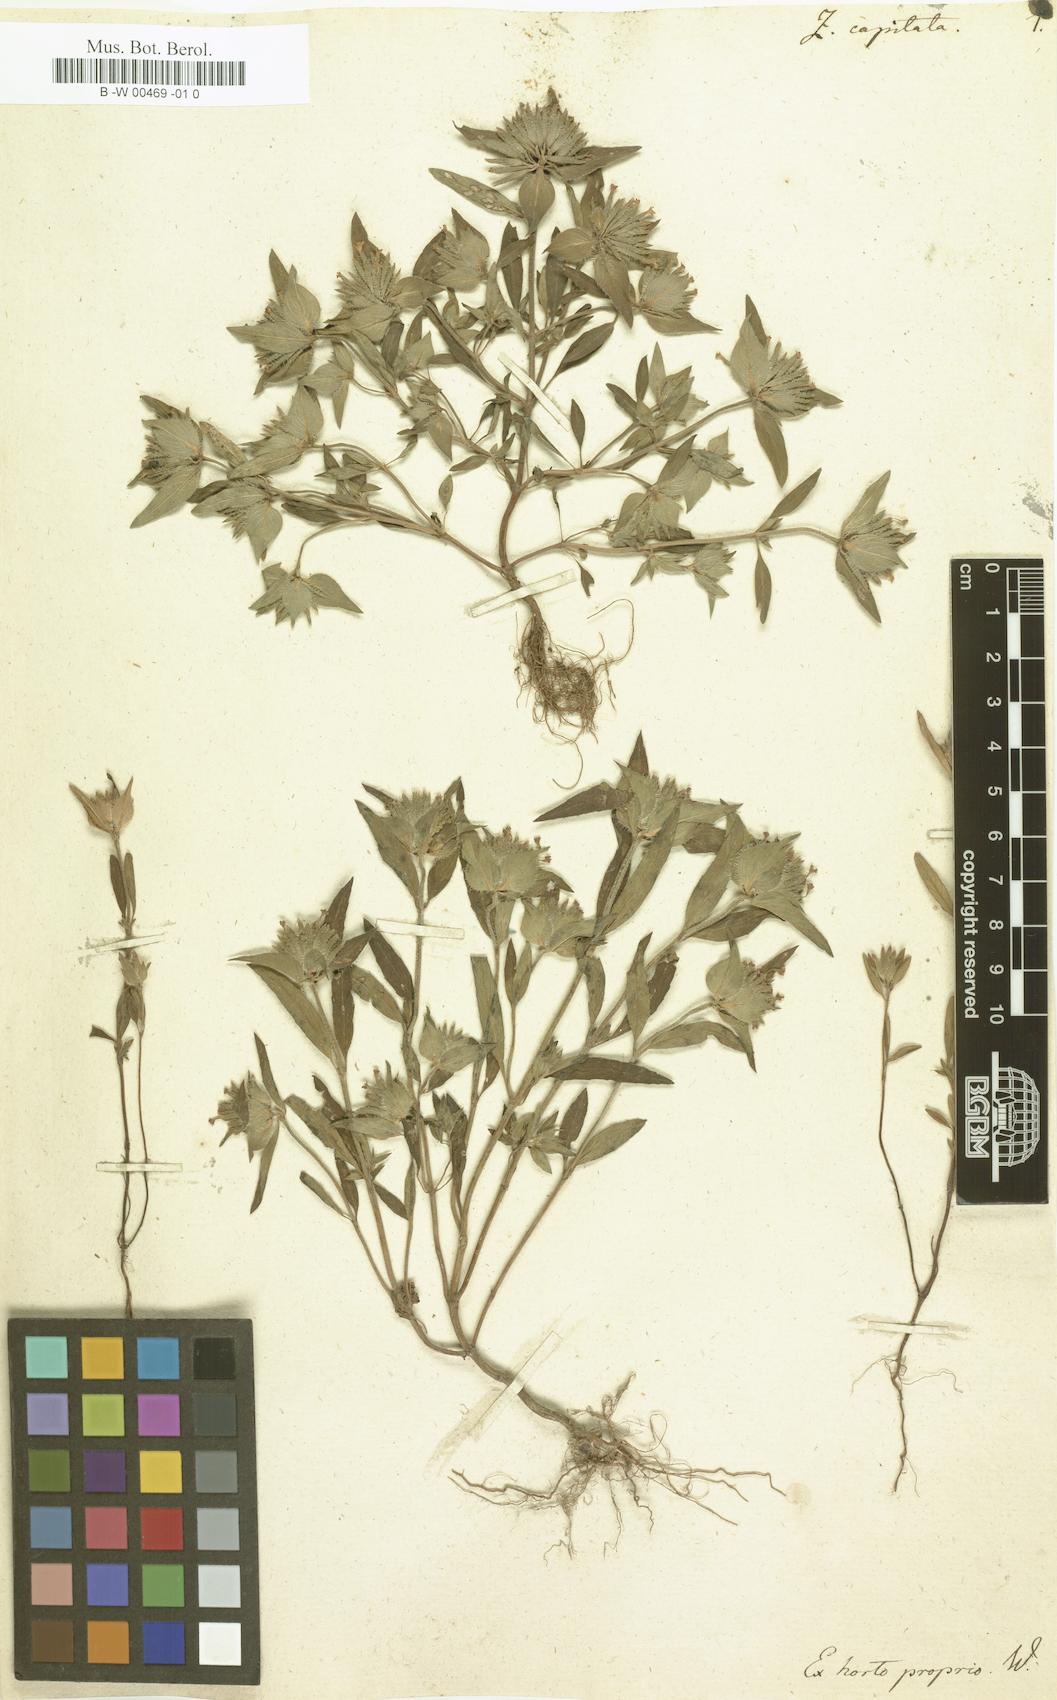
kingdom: Plantae
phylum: Tracheophyta
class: Magnoliopsida
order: Lamiales
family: Lamiaceae
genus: Ziziphora
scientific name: Ziziphora capitata
